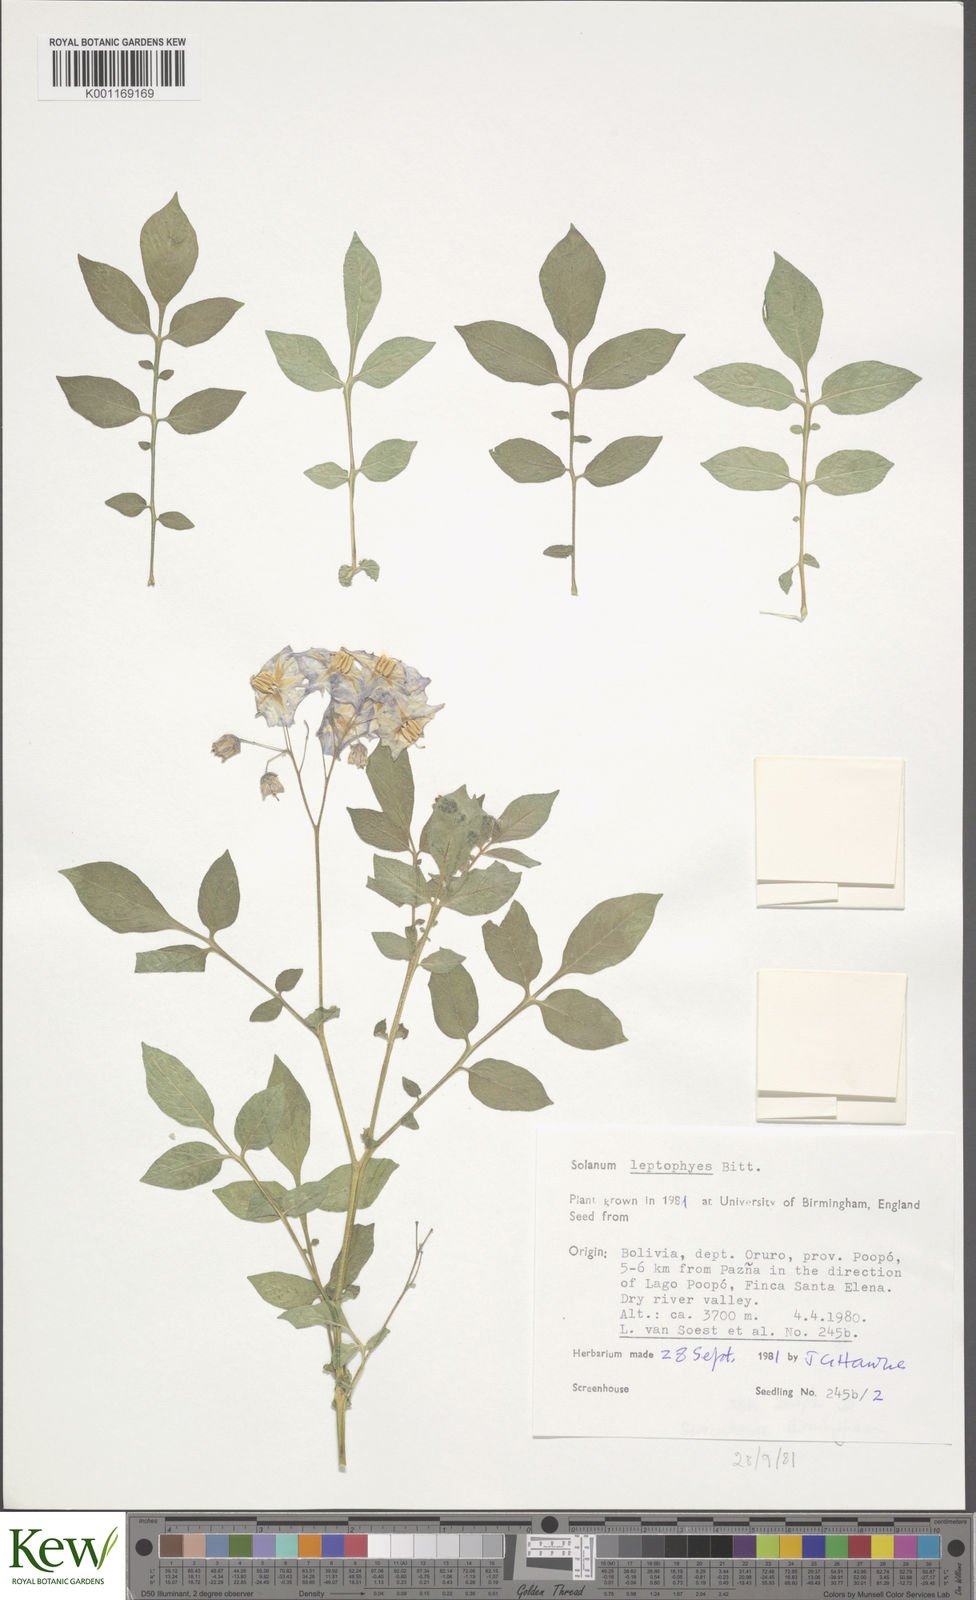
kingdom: Plantae
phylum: Tracheophyta
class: Magnoliopsida
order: Solanales
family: Solanaceae
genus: Solanum
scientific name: Solanum brevicaule
